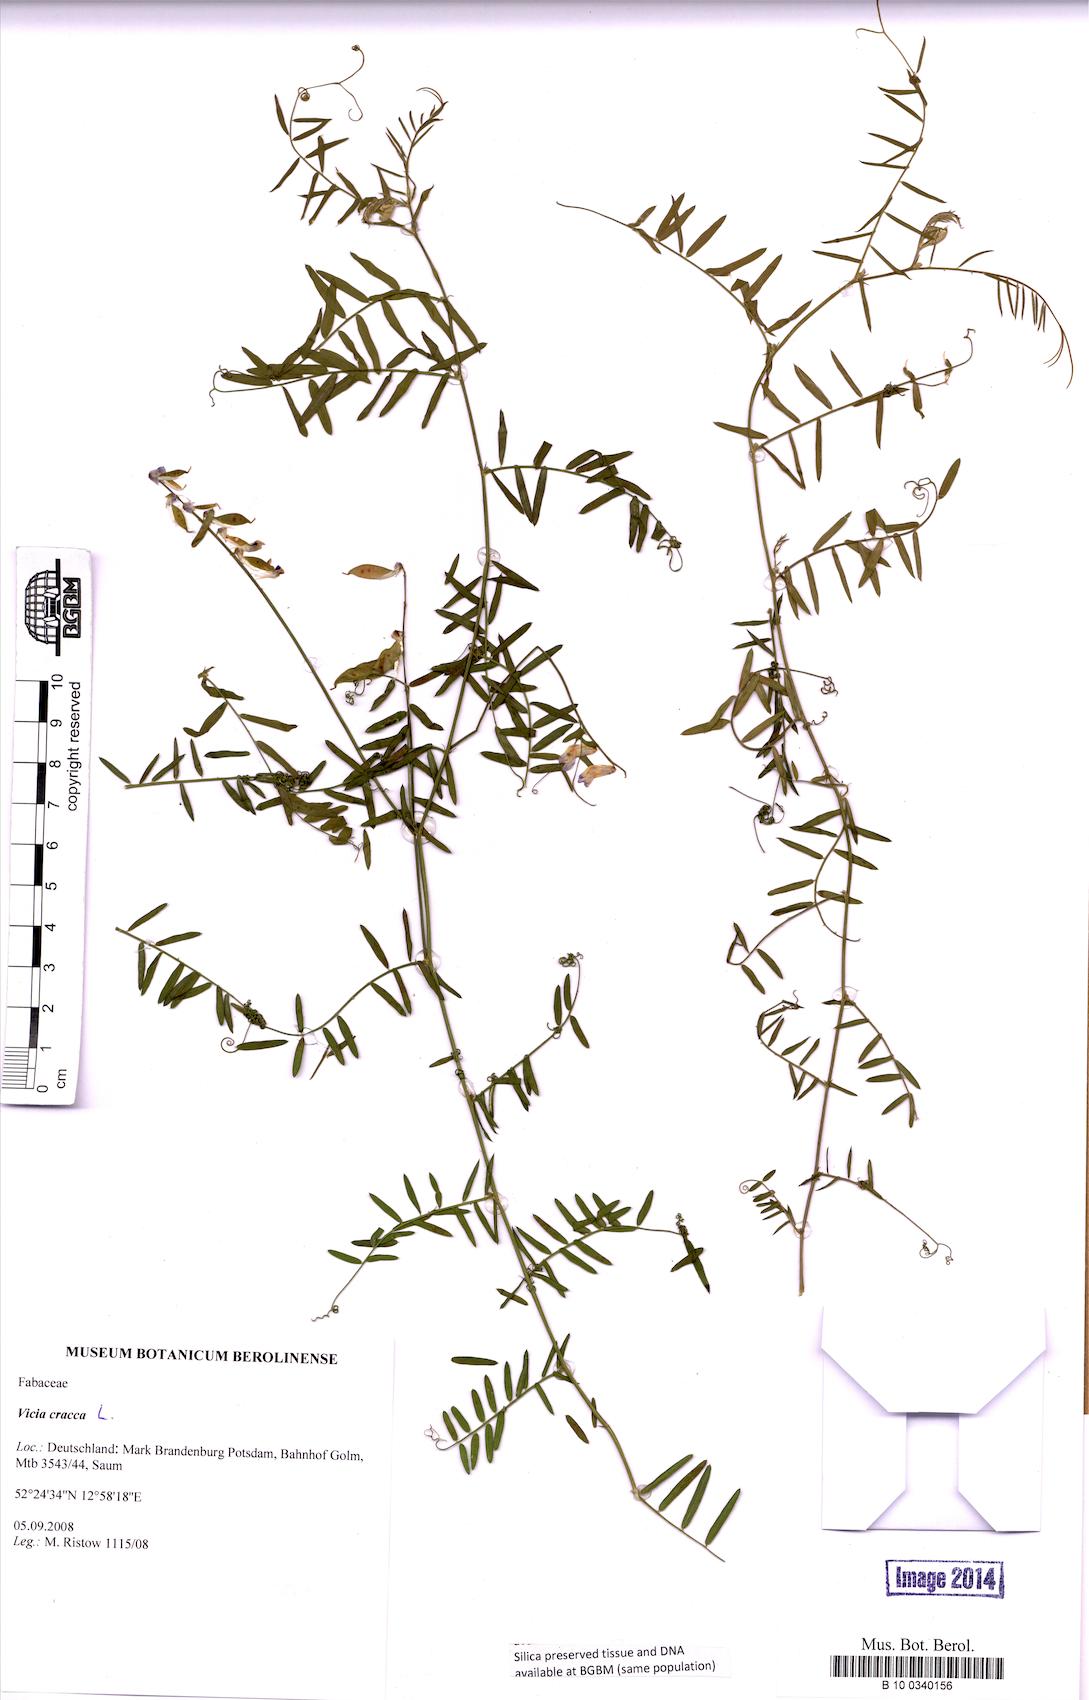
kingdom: Plantae
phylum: Tracheophyta
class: Magnoliopsida
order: Fabales
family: Fabaceae
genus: Vicia
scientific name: Vicia cracca
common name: Bird vetch
